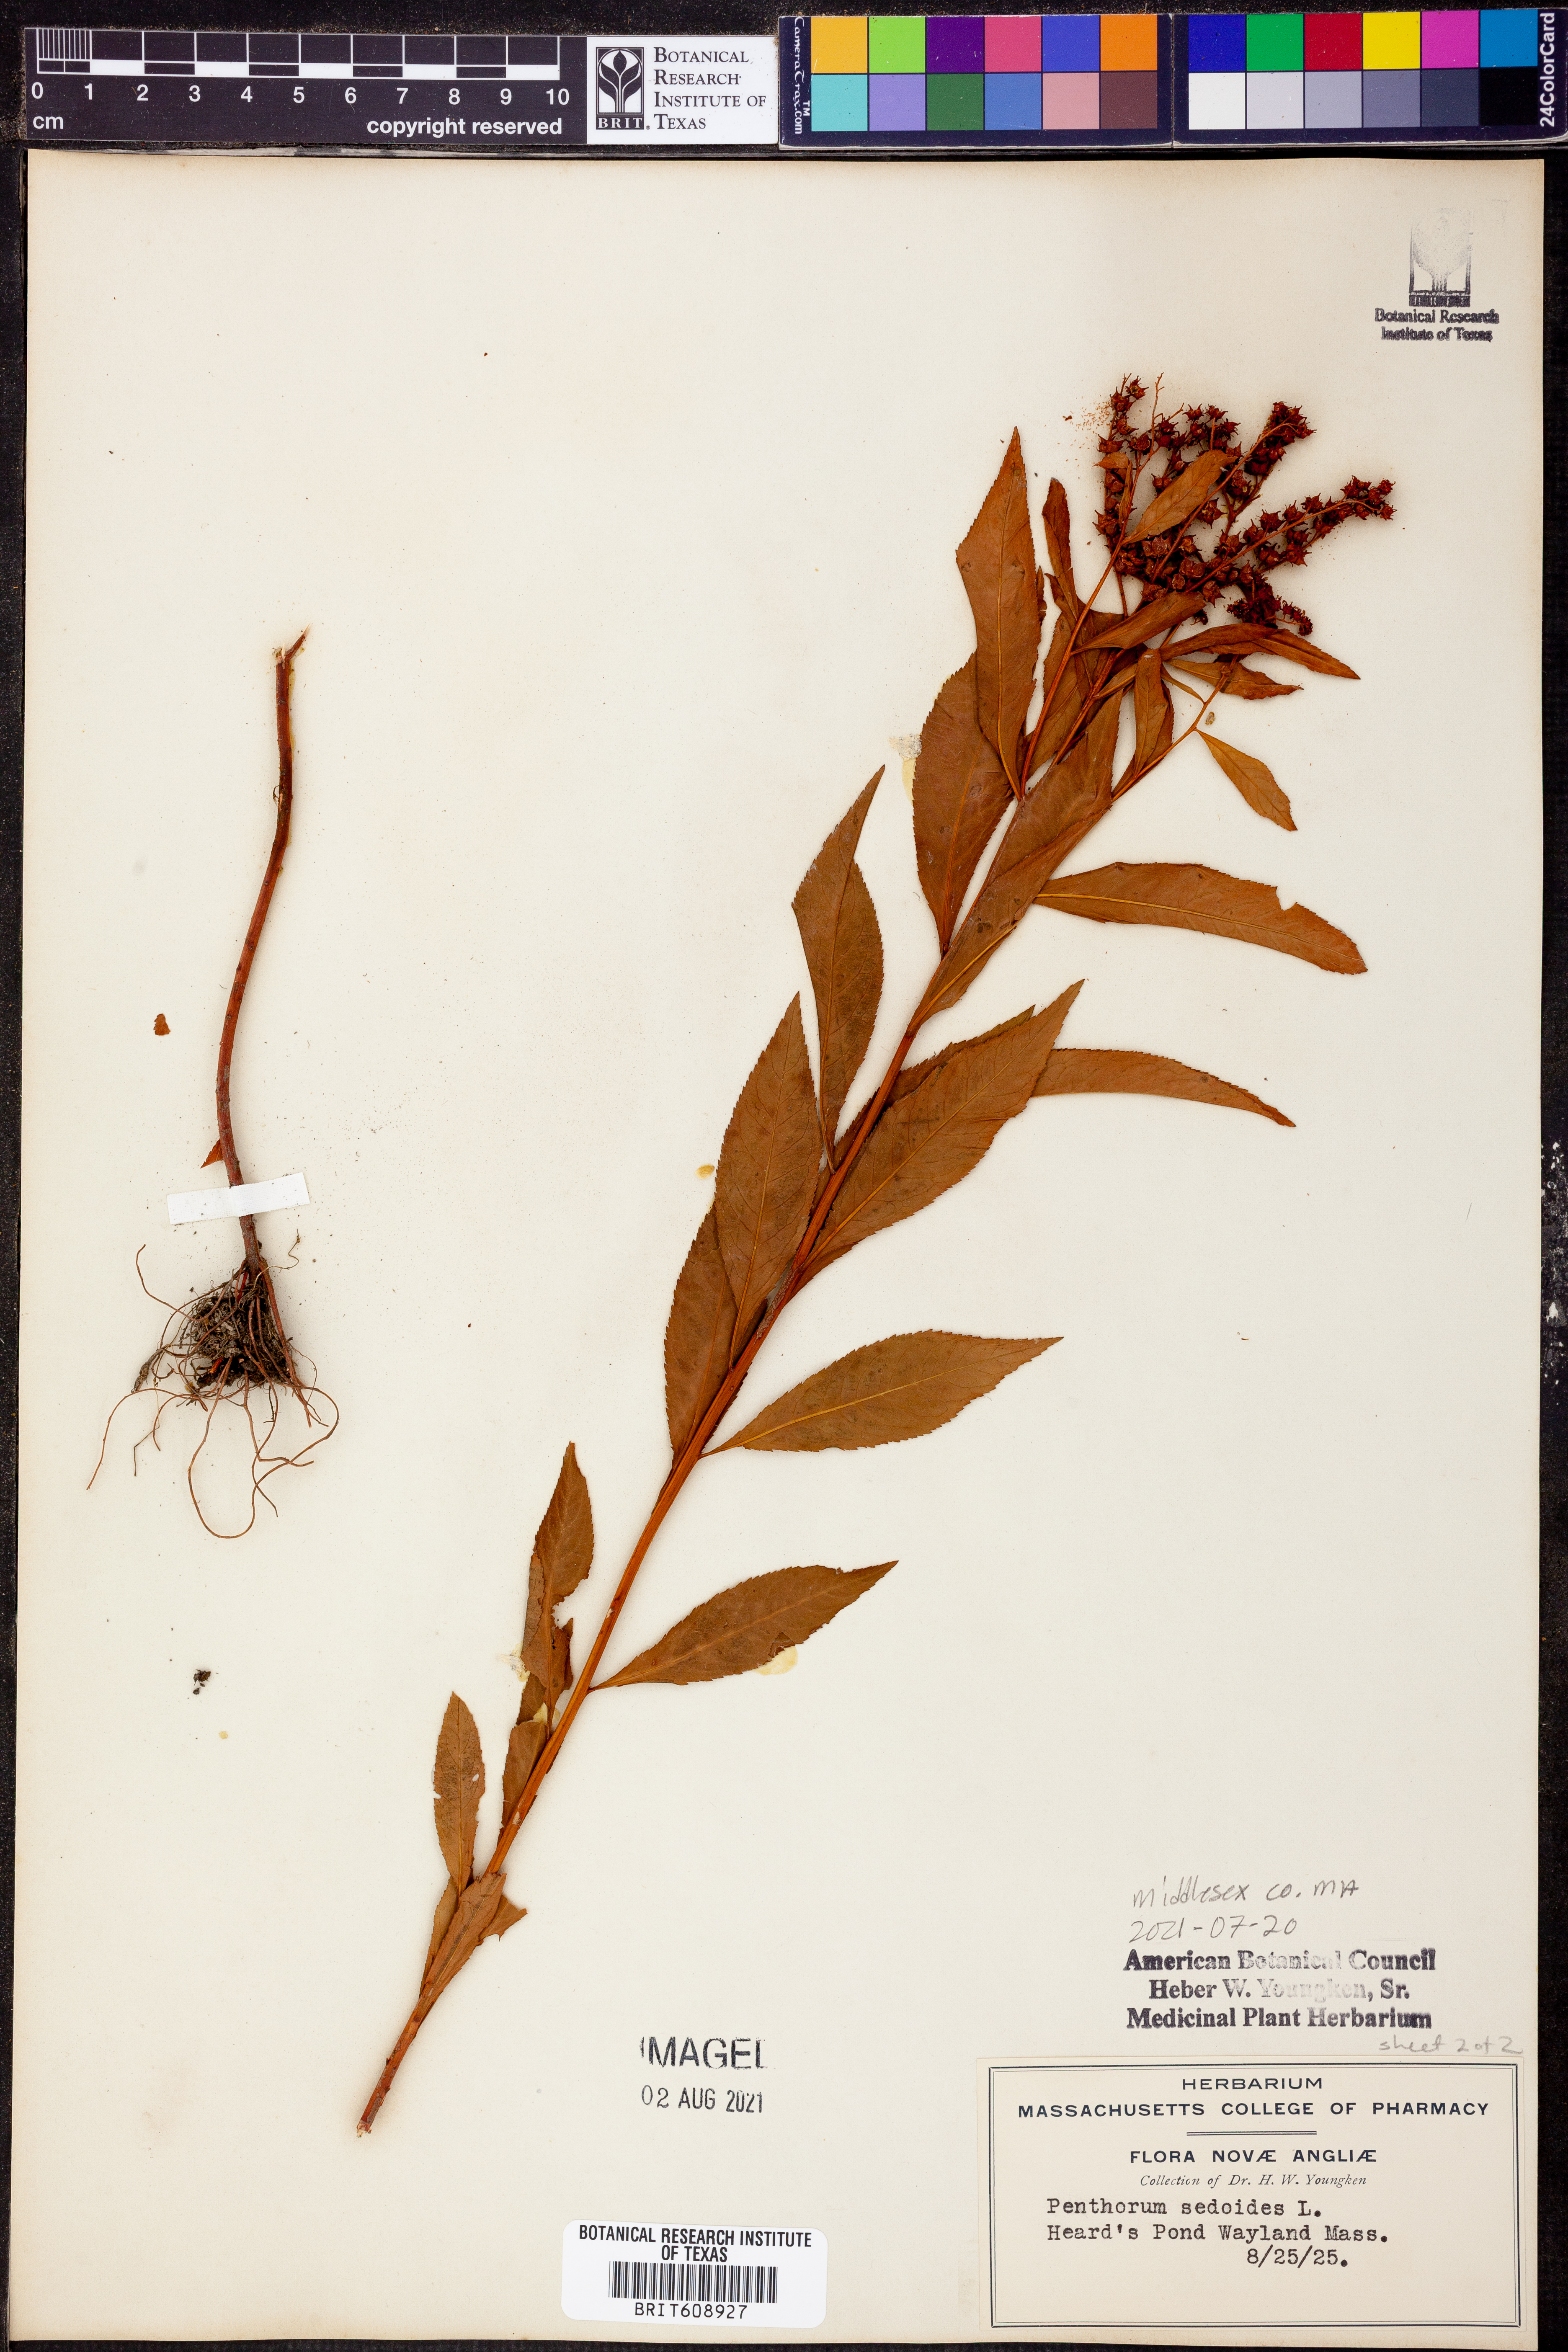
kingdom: Plantae
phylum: Tracheophyta
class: Magnoliopsida
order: Saxifragales
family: Penthoraceae
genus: Penthorum
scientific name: Penthorum sedoides
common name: Ditch stonecrop
